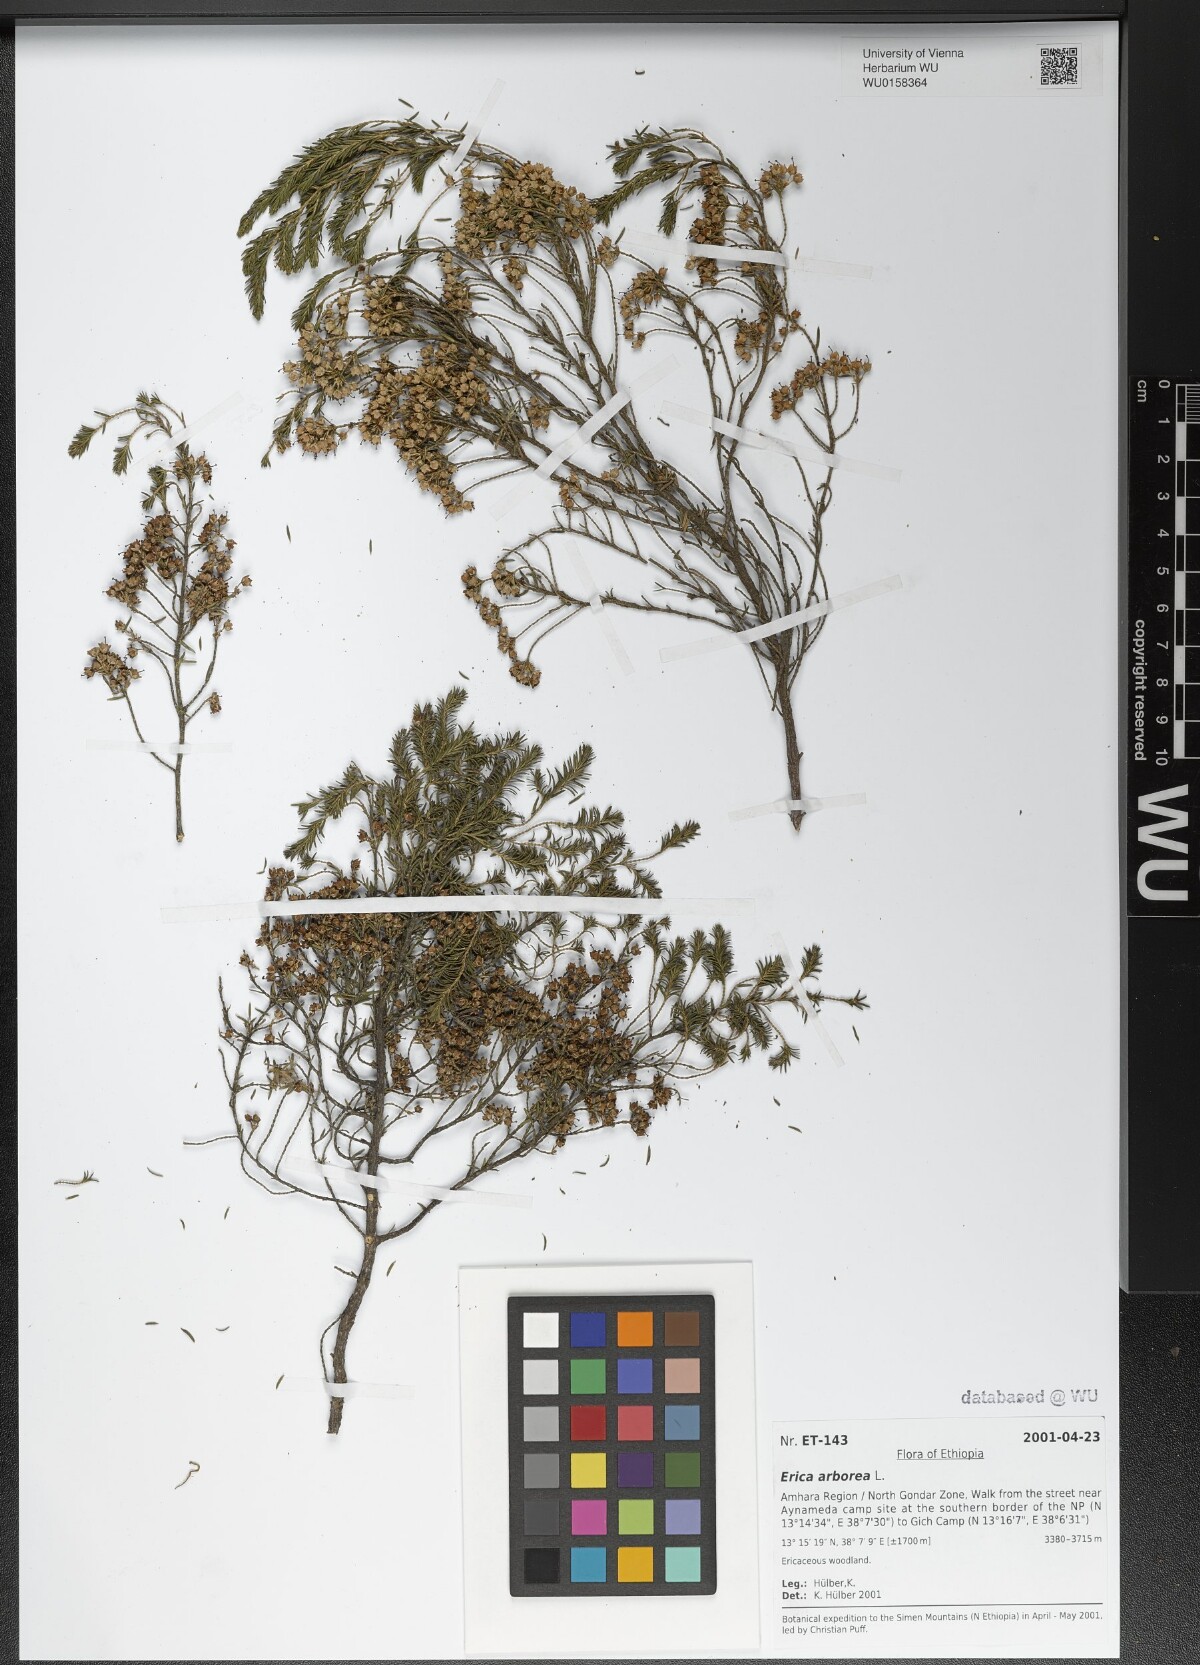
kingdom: Plantae
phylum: Tracheophyta
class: Magnoliopsida
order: Ericales
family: Ericaceae
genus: Erica
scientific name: Erica arborea
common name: Tree heath
